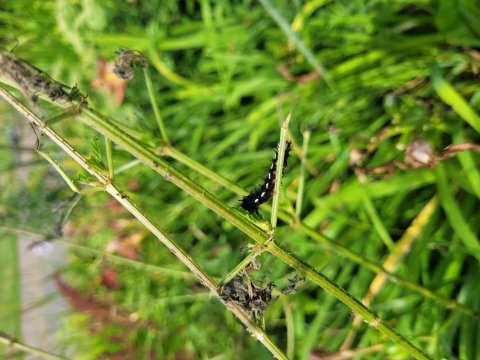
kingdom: Animalia
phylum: Arthropoda
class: Insecta
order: Lepidoptera
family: Nymphalidae
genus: Aglais
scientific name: Aglais io
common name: European Peacock
